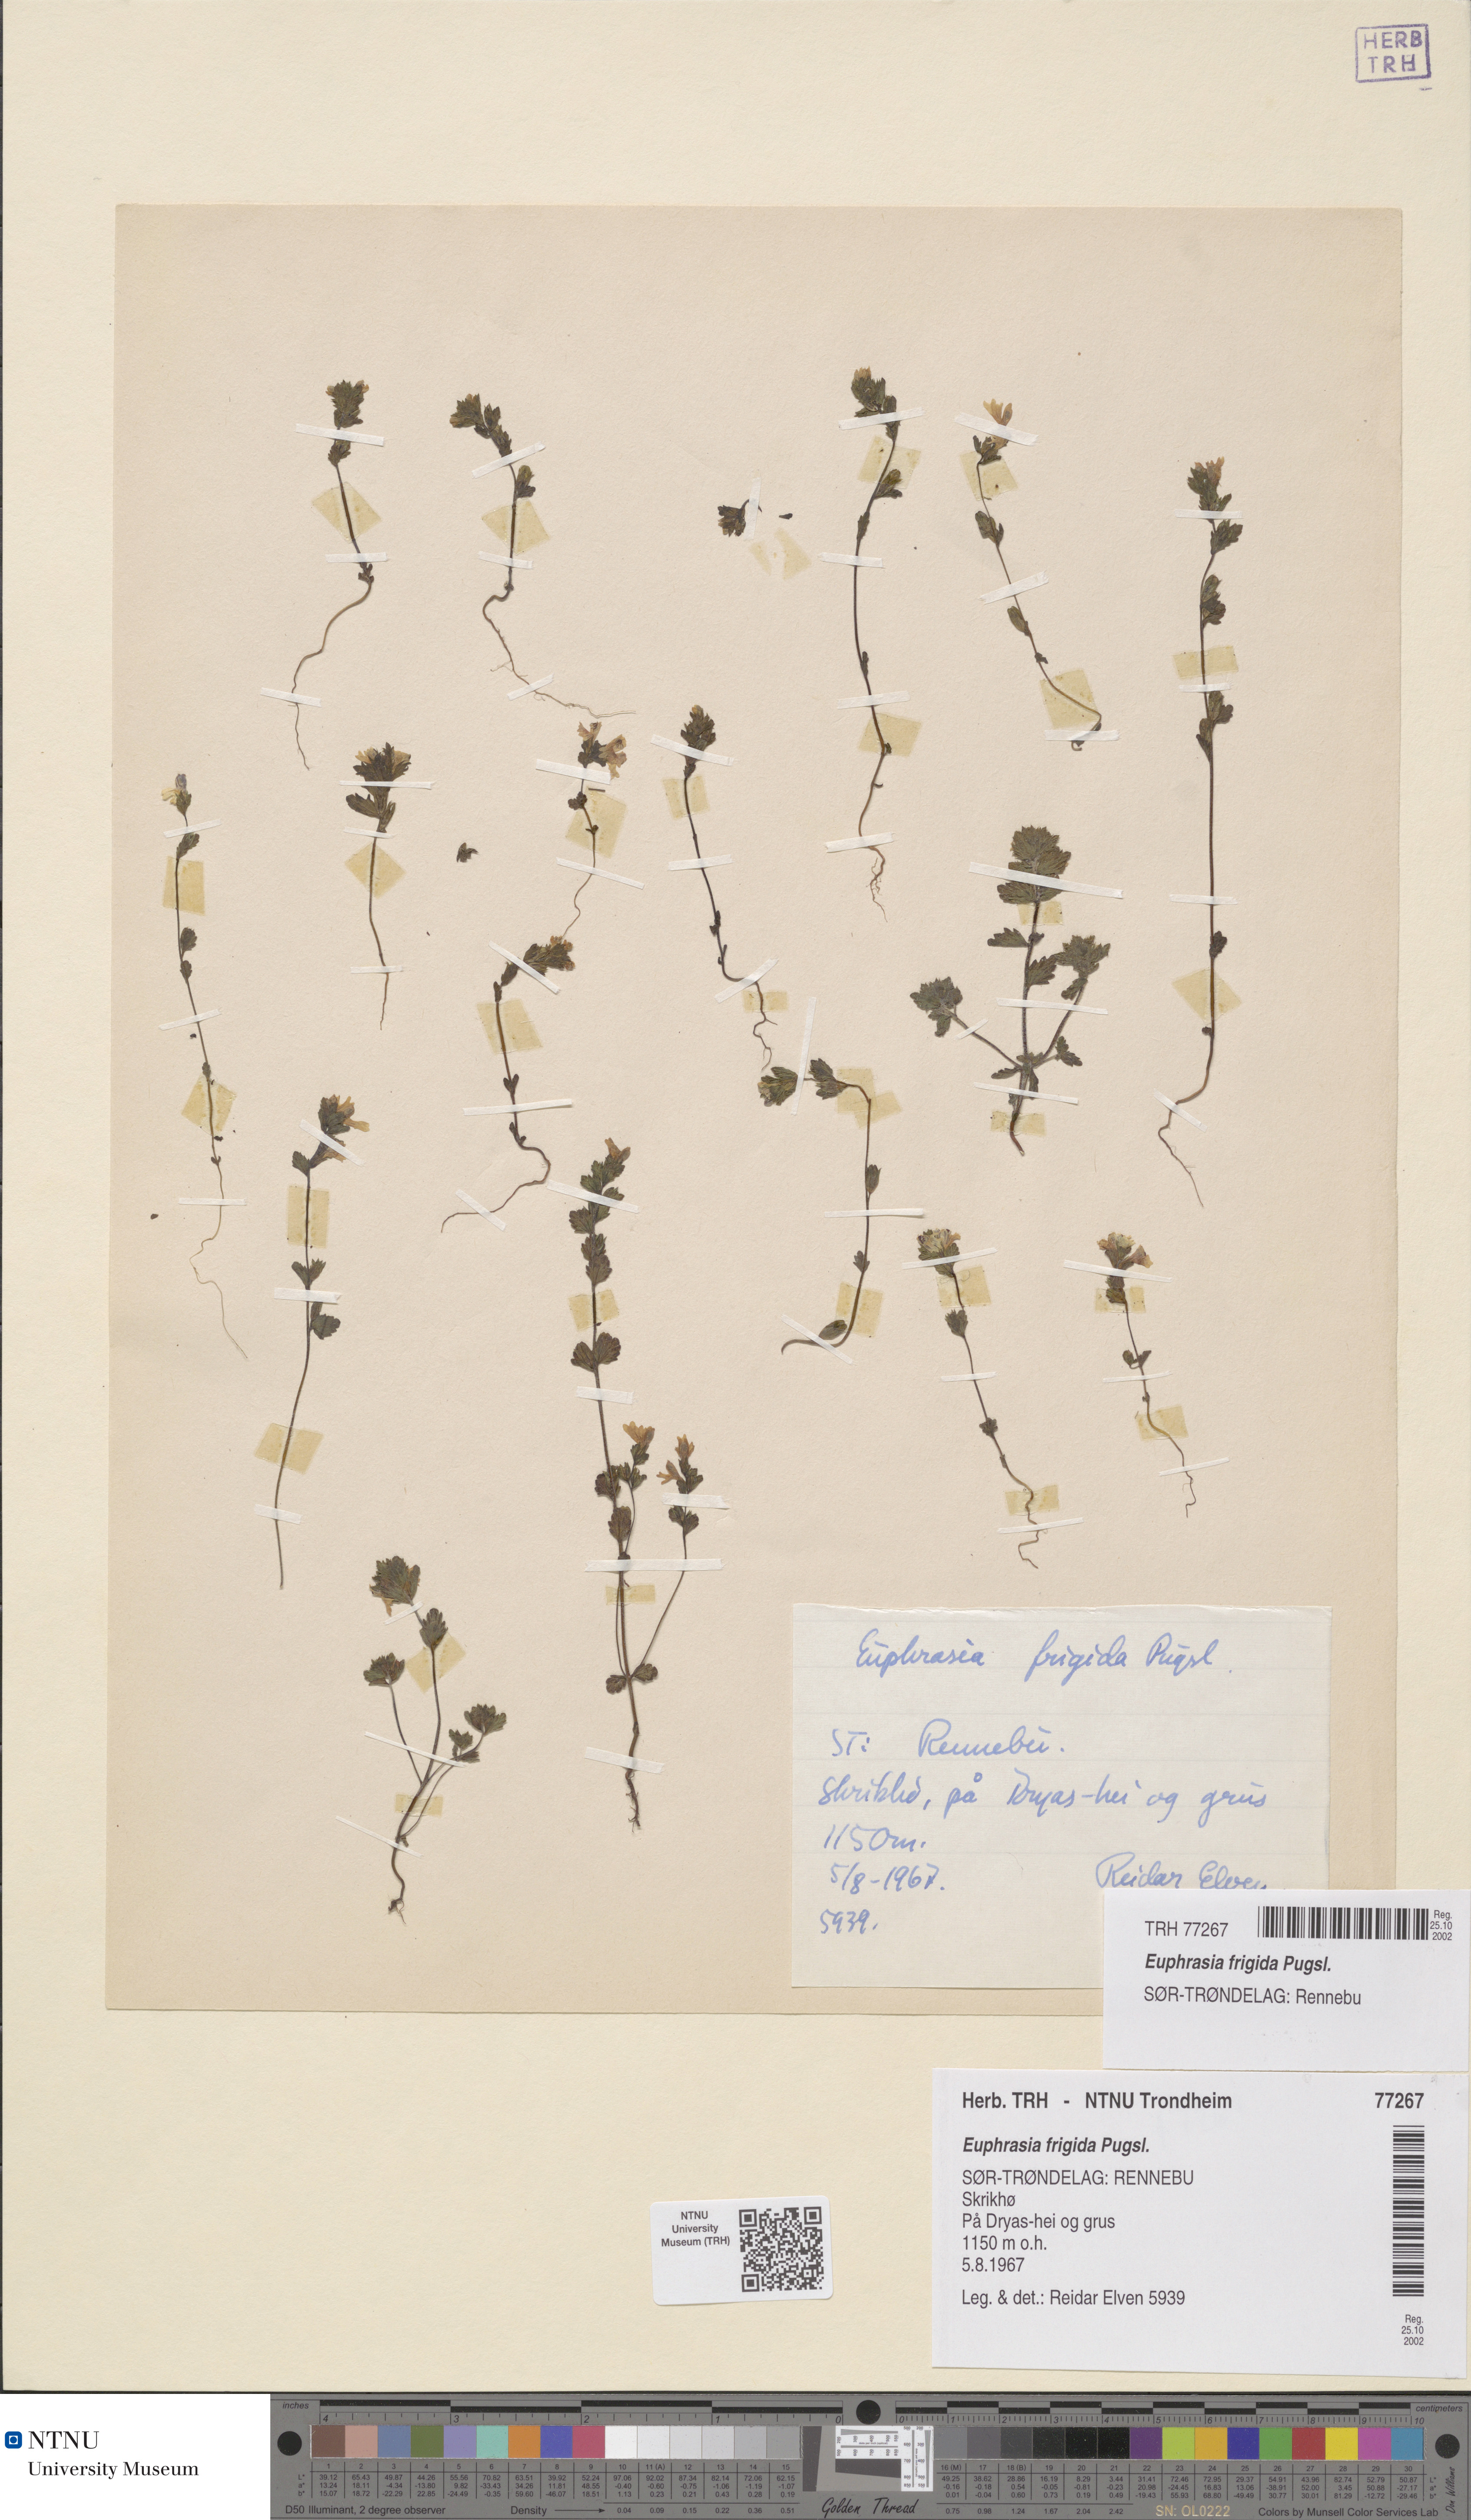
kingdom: Plantae
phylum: Tracheophyta
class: Magnoliopsida
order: Lamiales
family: Orobanchaceae
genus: Euphrasia
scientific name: Euphrasia wettsteinii
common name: Wettstein's eyebright
